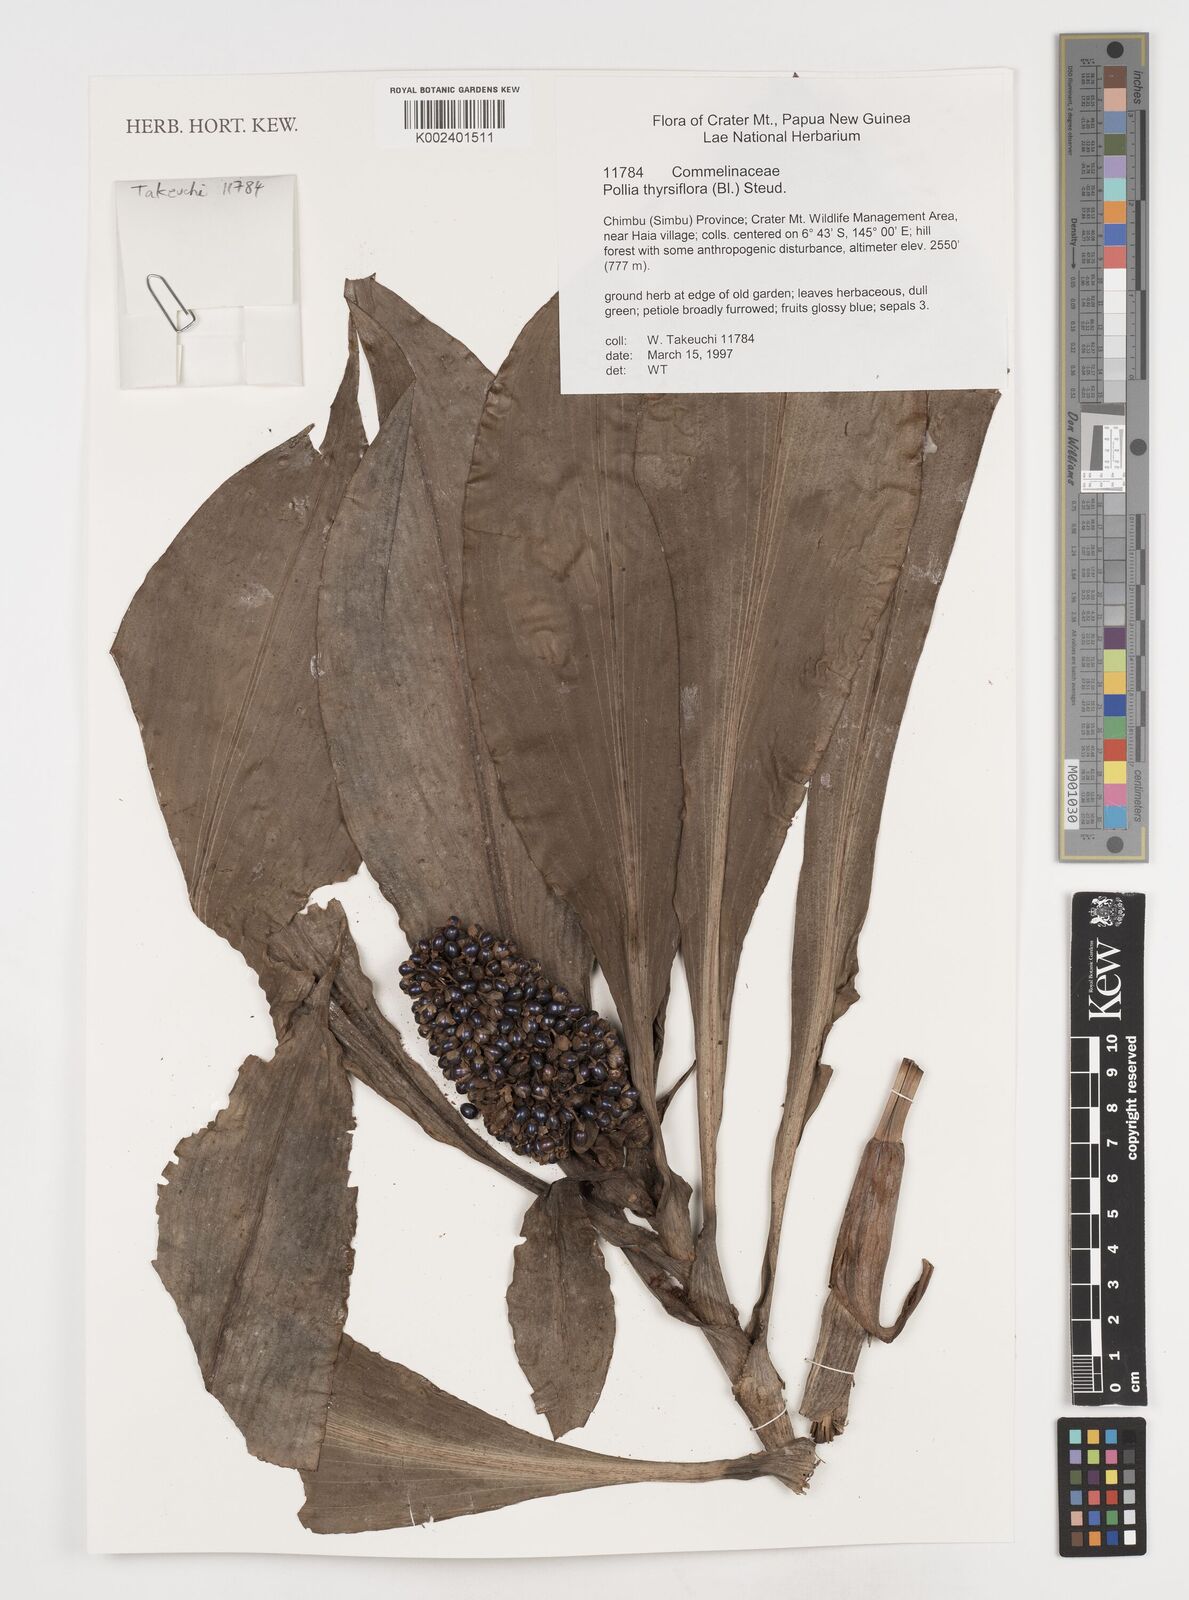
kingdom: Plantae
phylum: Tracheophyta
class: Liliopsida
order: Commelinales
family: Commelinaceae
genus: Pollia
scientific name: Pollia thyrsiflora
